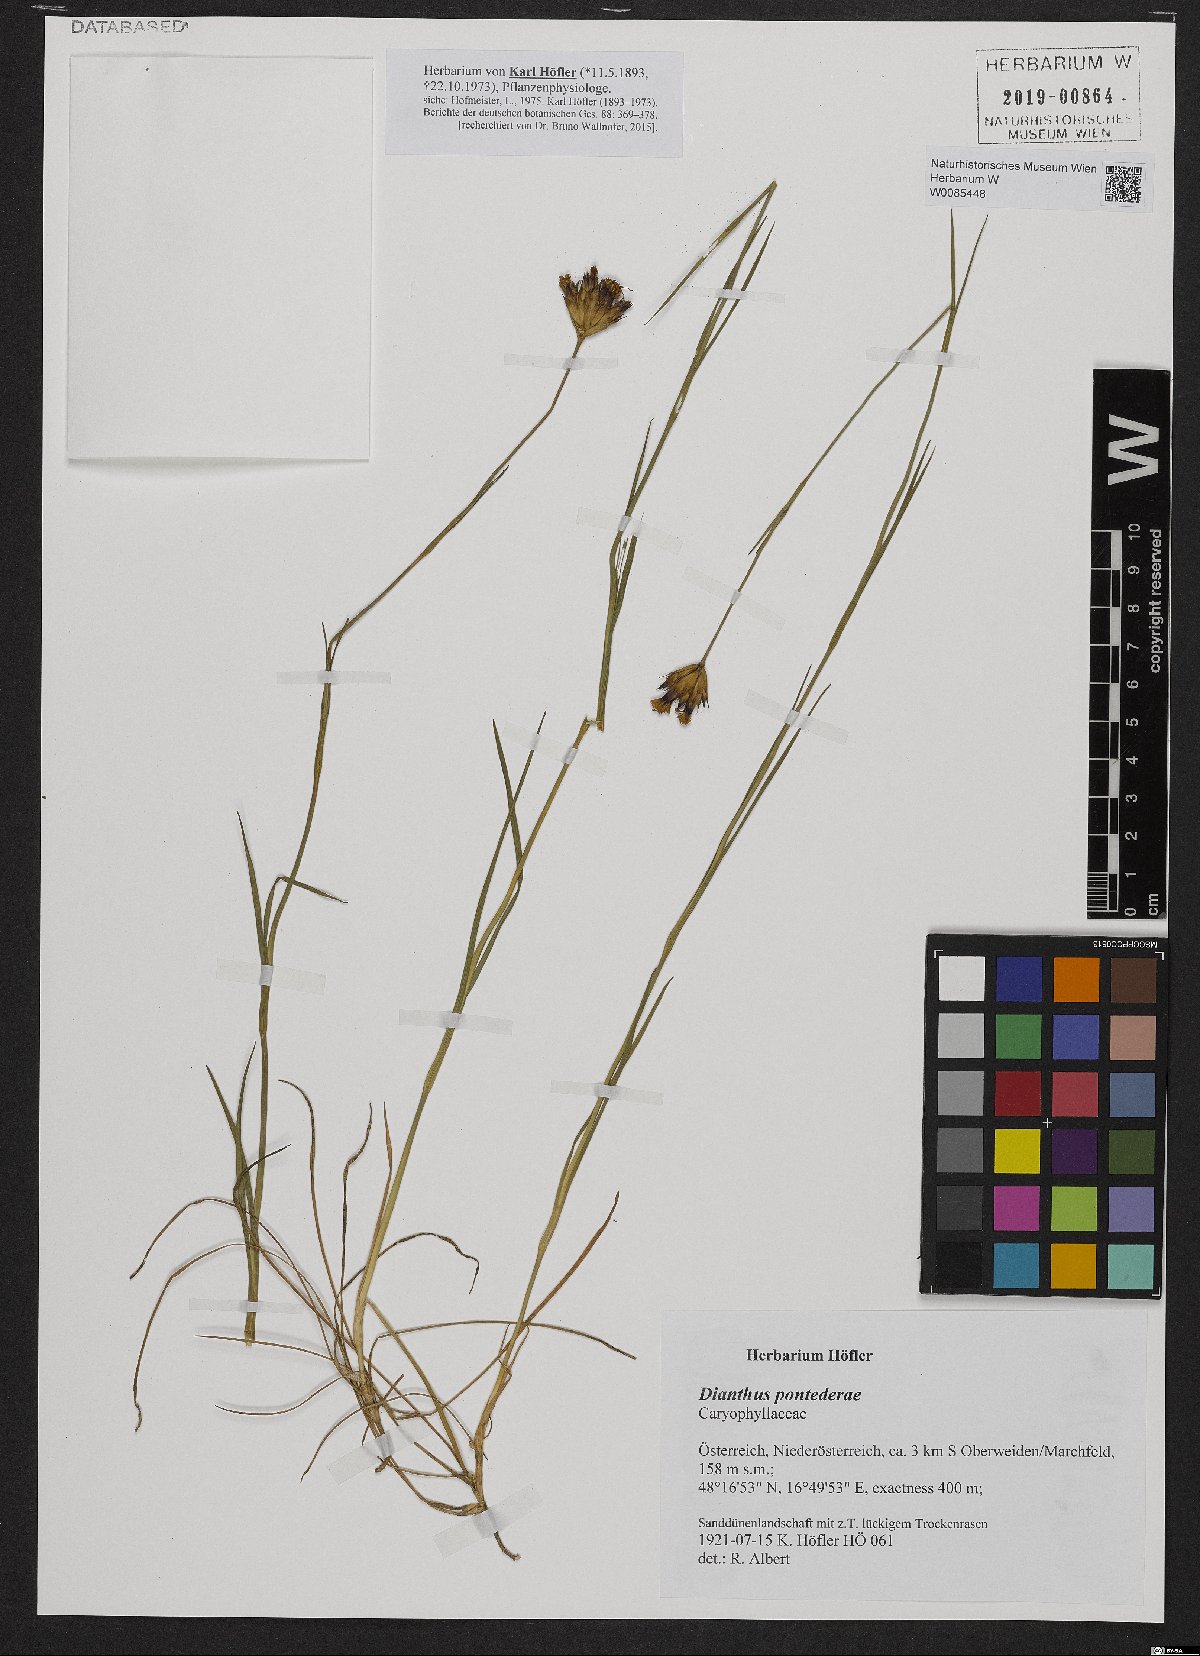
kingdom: Plantae
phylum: Tracheophyta
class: Magnoliopsida
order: Caryophyllales
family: Caryophyllaceae
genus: Dianthus
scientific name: Dianthus pontederae
